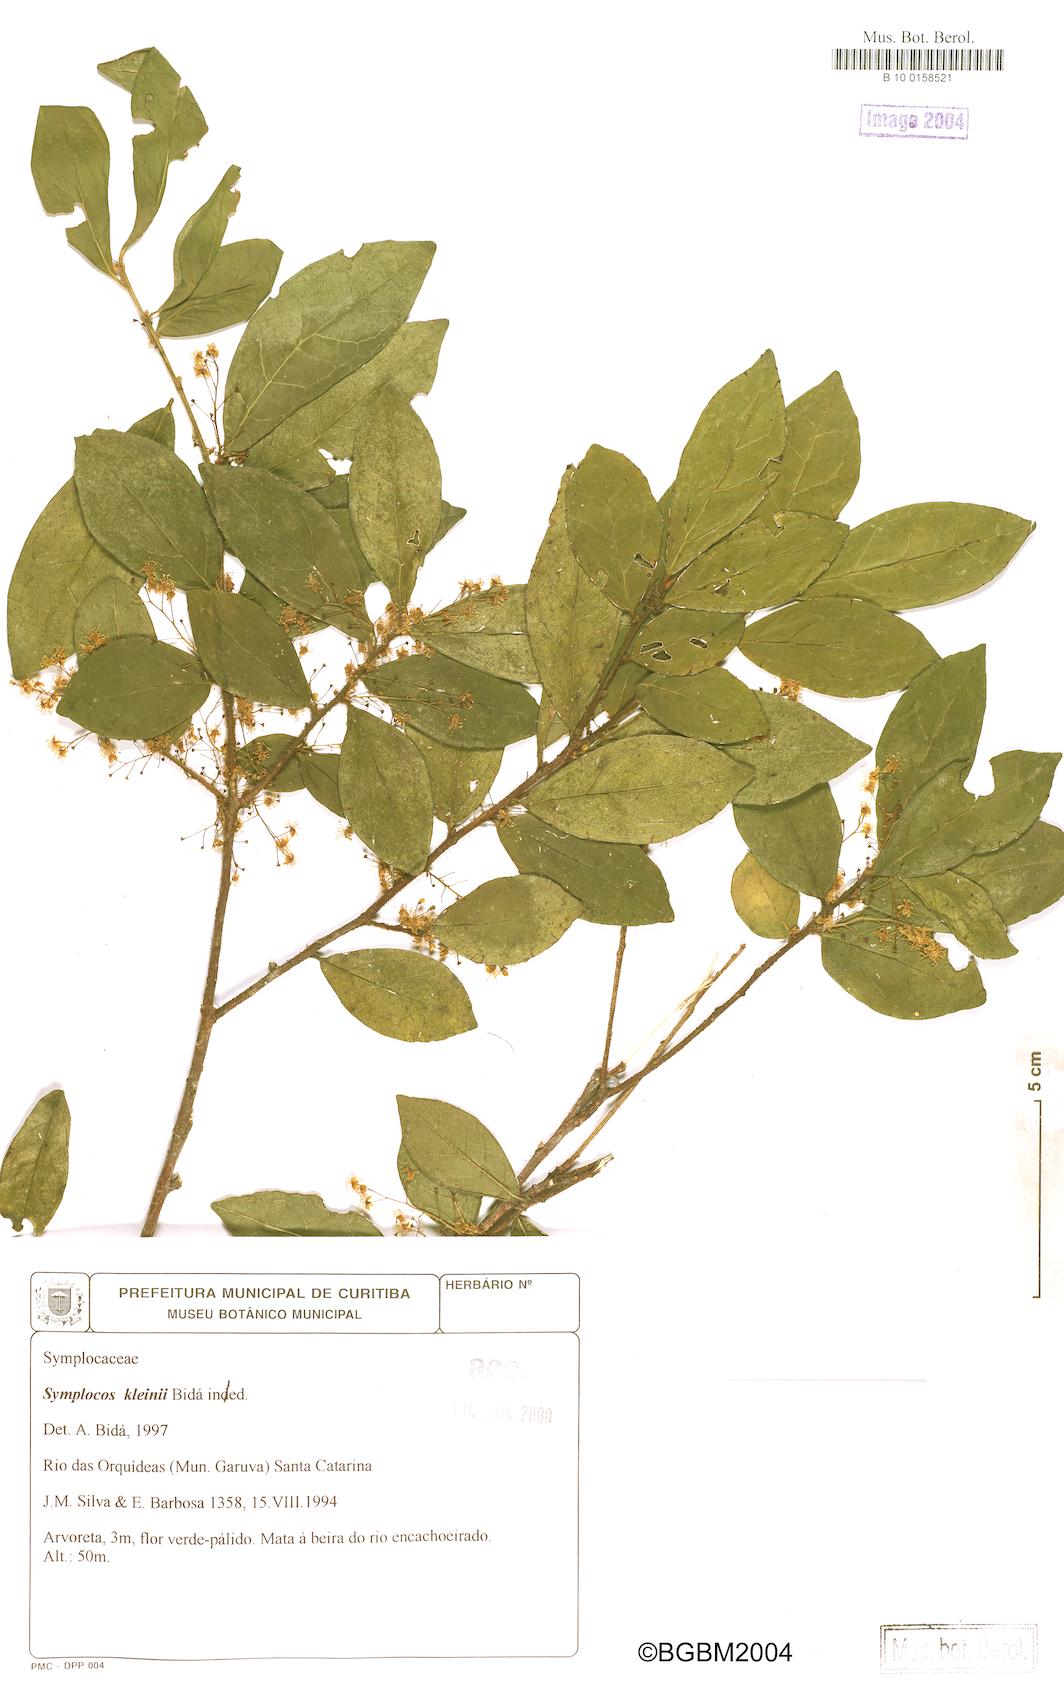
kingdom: Plantae
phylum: Tracheophyta
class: Magnoliopsida
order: Ericales
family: Symplocaceae
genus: Symplocos
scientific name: Symplocos pustulosa
